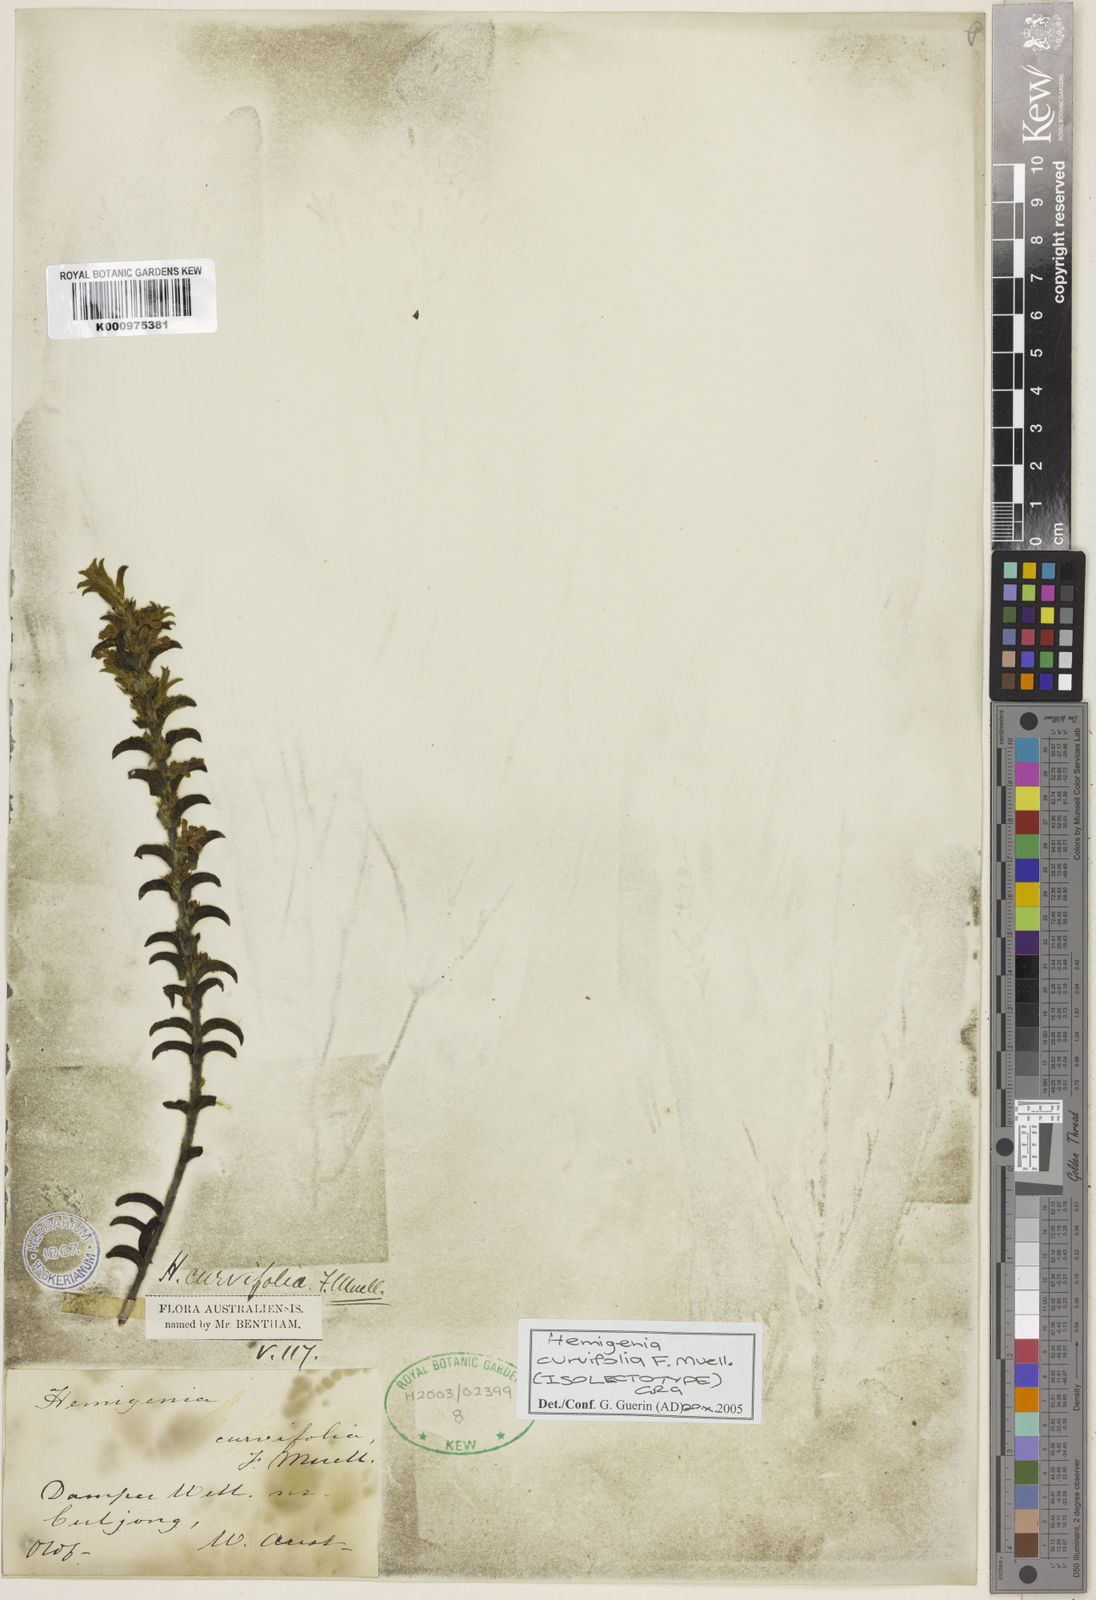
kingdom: Plantae
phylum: Tracheophyta
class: Magnoliopsida
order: Lamiales
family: Lamiaceae
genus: Hemigenia
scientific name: Hemigenia curvifolia
